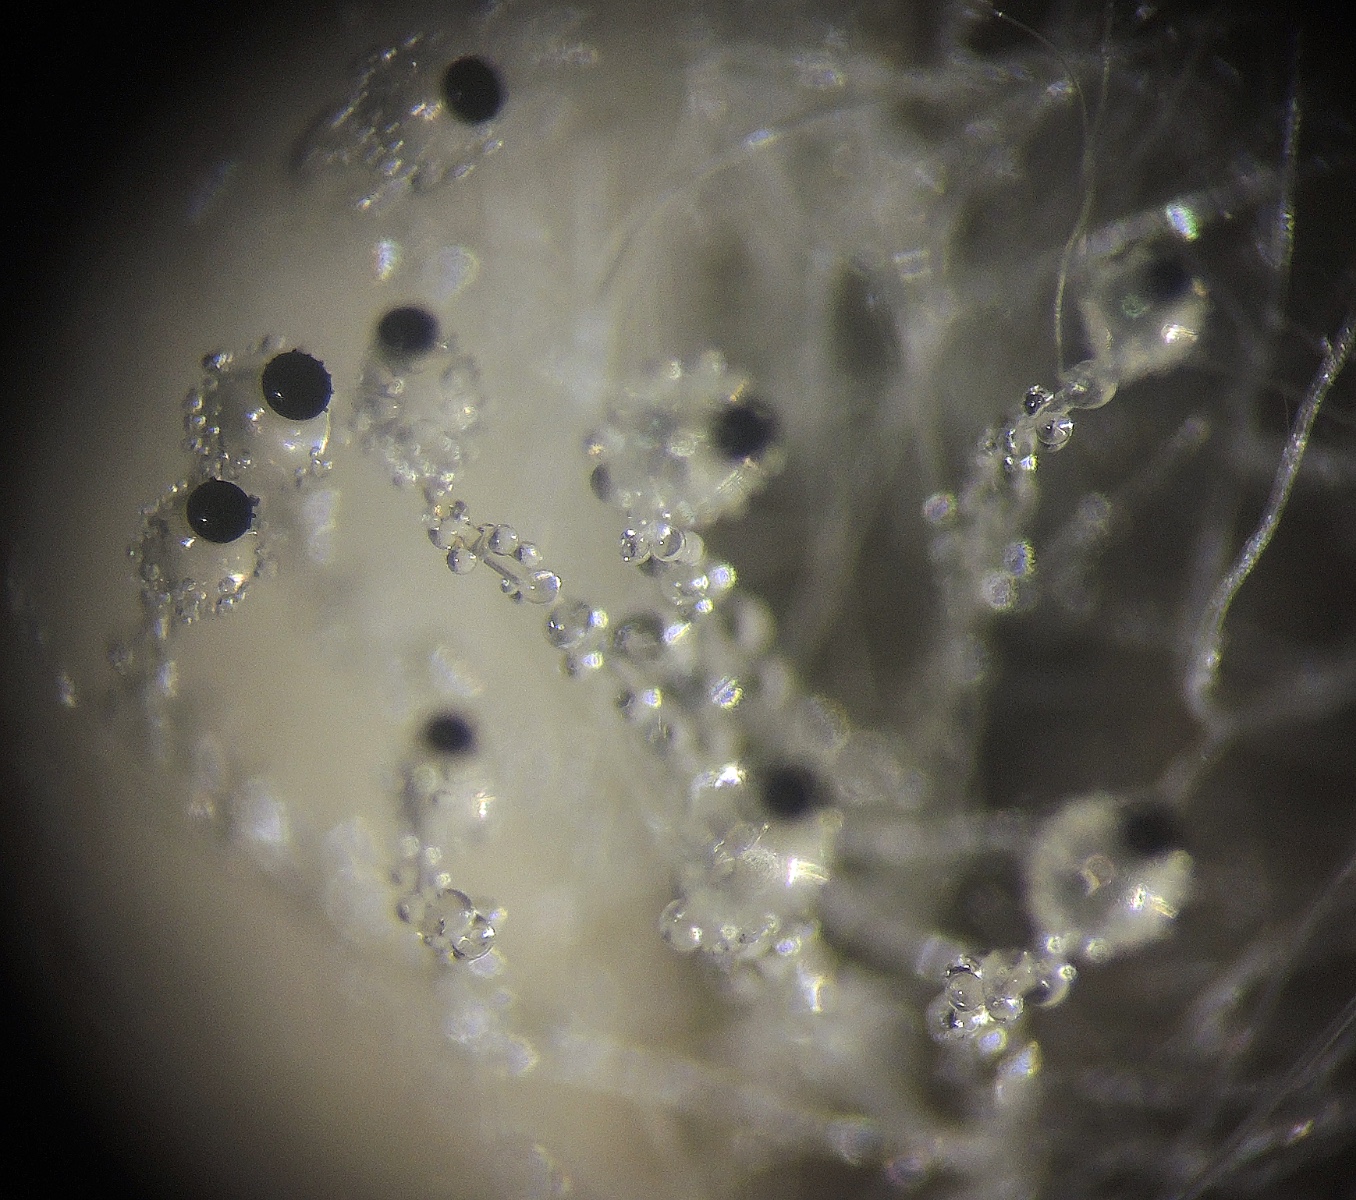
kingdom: Fungi
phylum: Mucoromycota
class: Mucoromycetes
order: Mucorales
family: Pilobolaceae
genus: Pilobolus
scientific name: Pilobolus crystallinus
